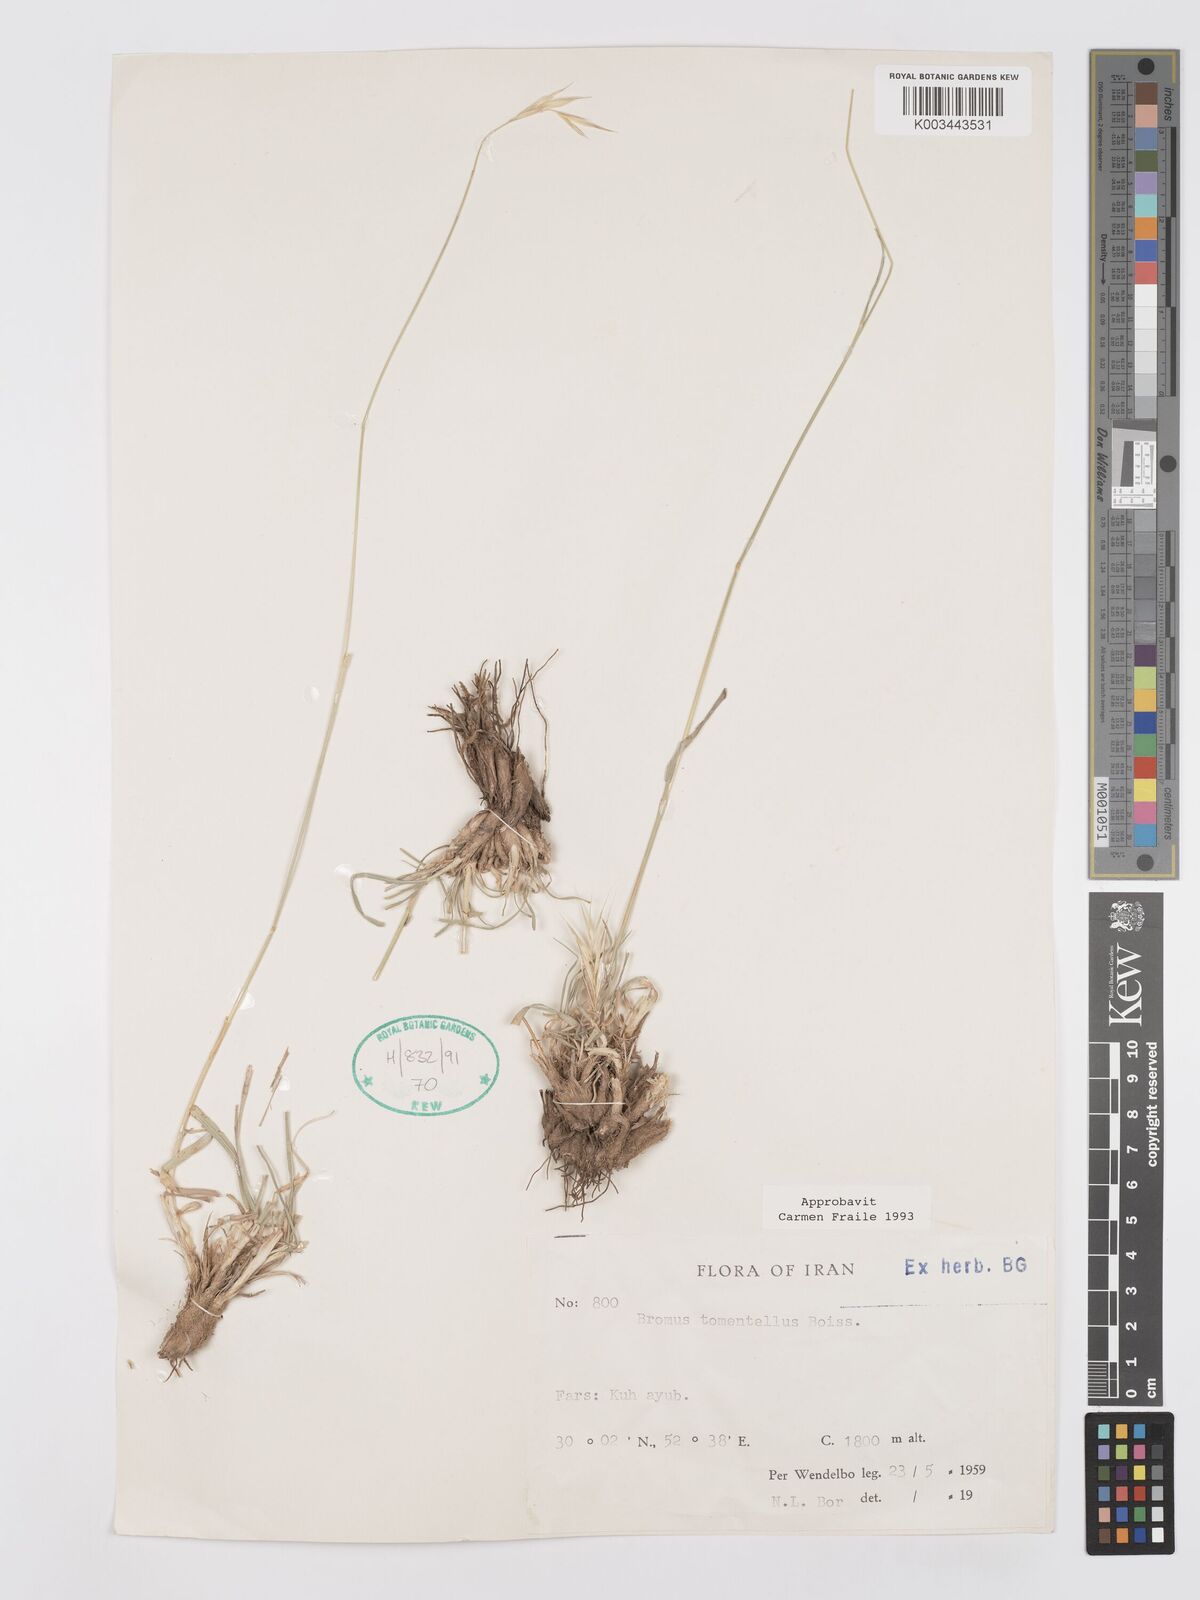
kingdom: Plantae
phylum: Tracheophyta
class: Liliopsida
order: Poales
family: Poaceae
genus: Bromus
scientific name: Bromus tomentellus
